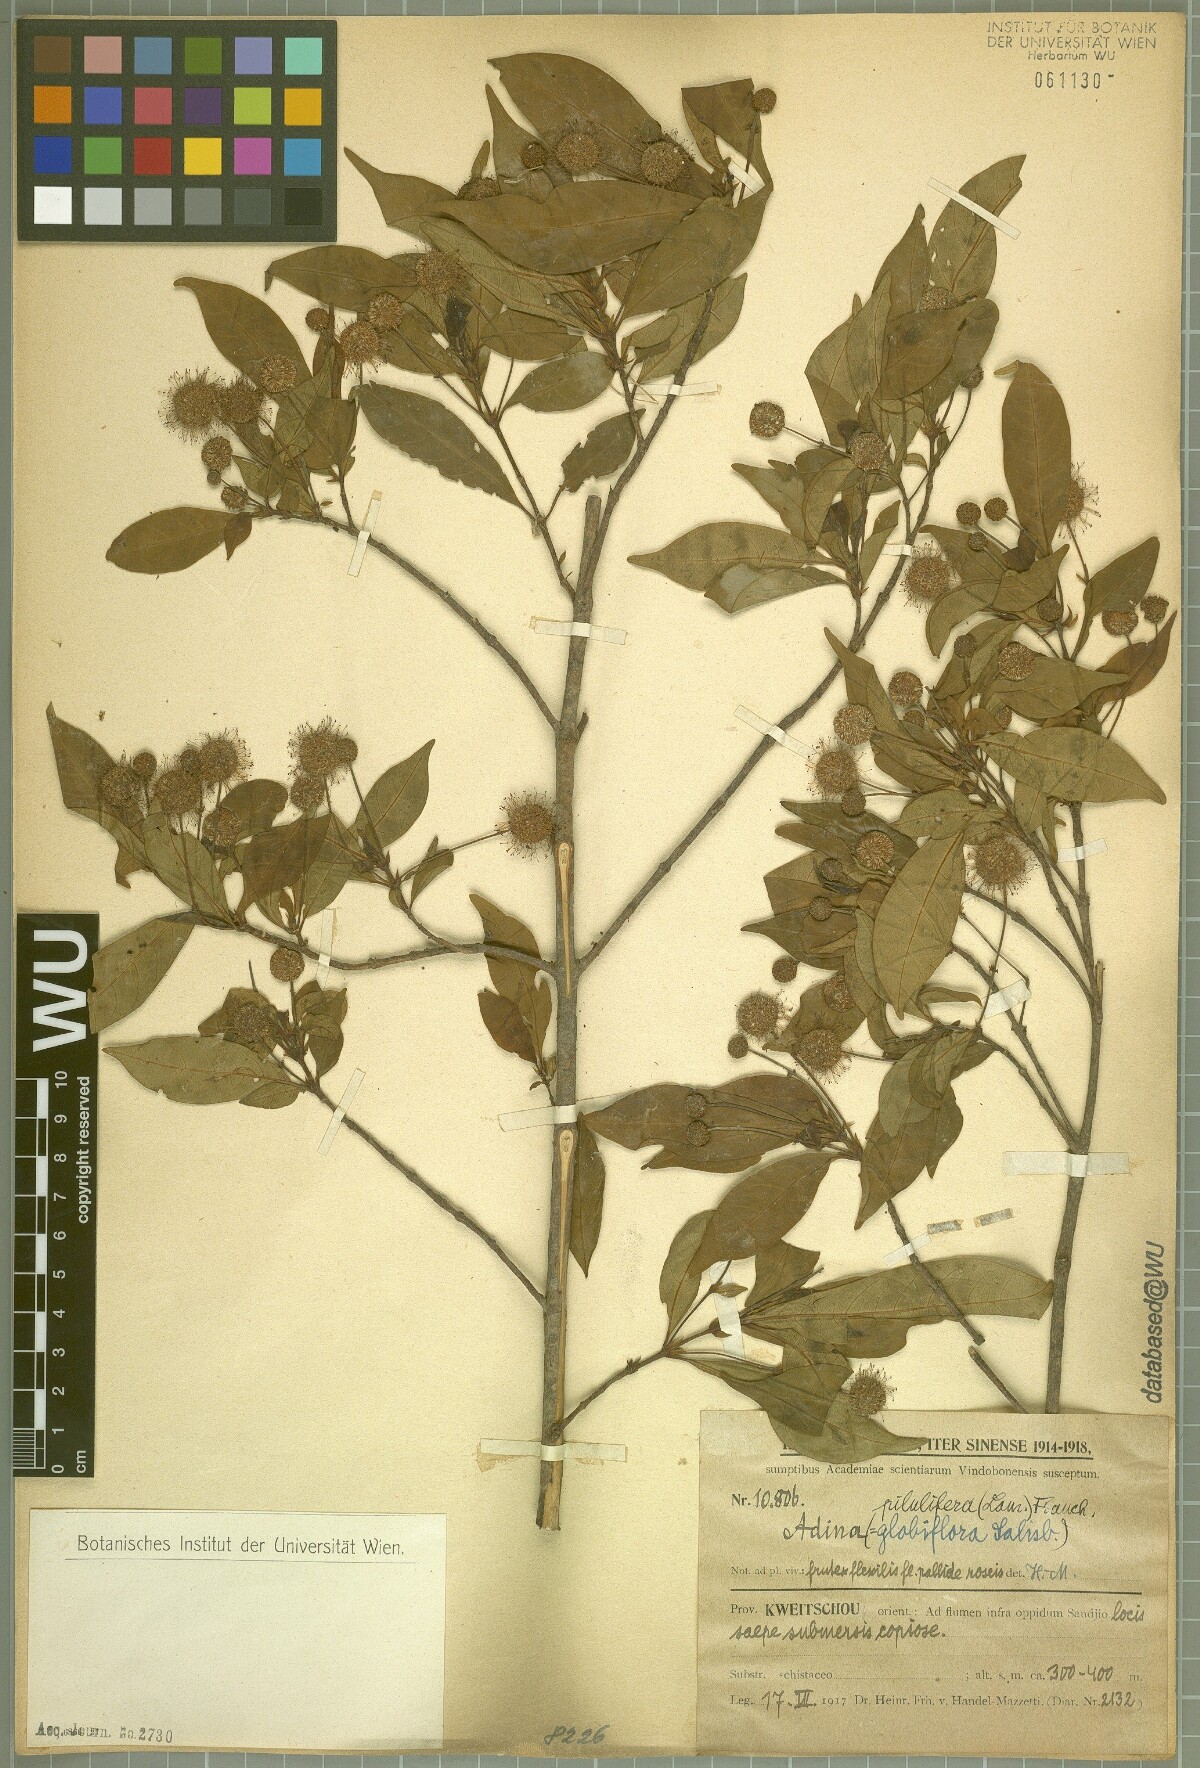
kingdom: Plantae
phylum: Tracheophyta
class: Magnoliopsida
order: Gentianales
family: Rubiaceae
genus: Adina
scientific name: Adina pilulifera
